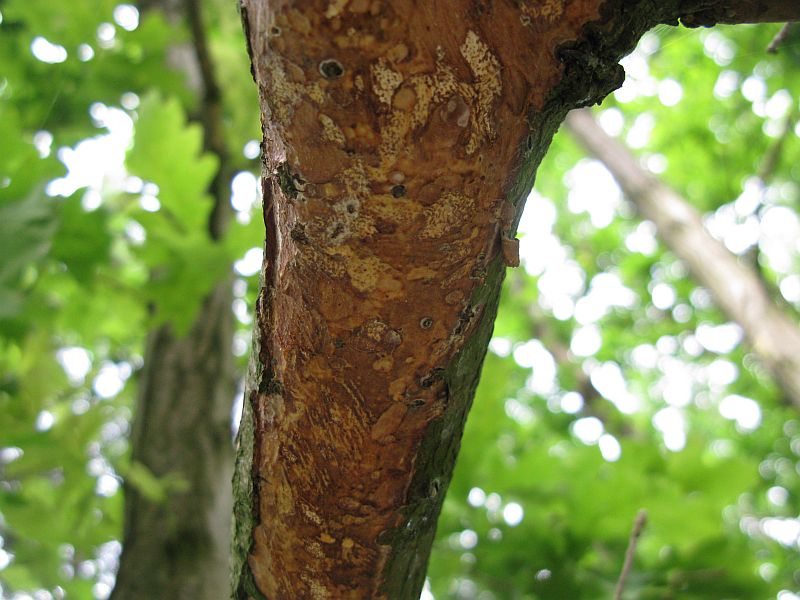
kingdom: Fungi
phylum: Basidiomycota
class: Agaricomycetes
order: Corticiales
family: Vuilleminiaceae
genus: Vuilleminia
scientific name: Vuilleminia comedens
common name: almindelig barksprænger
